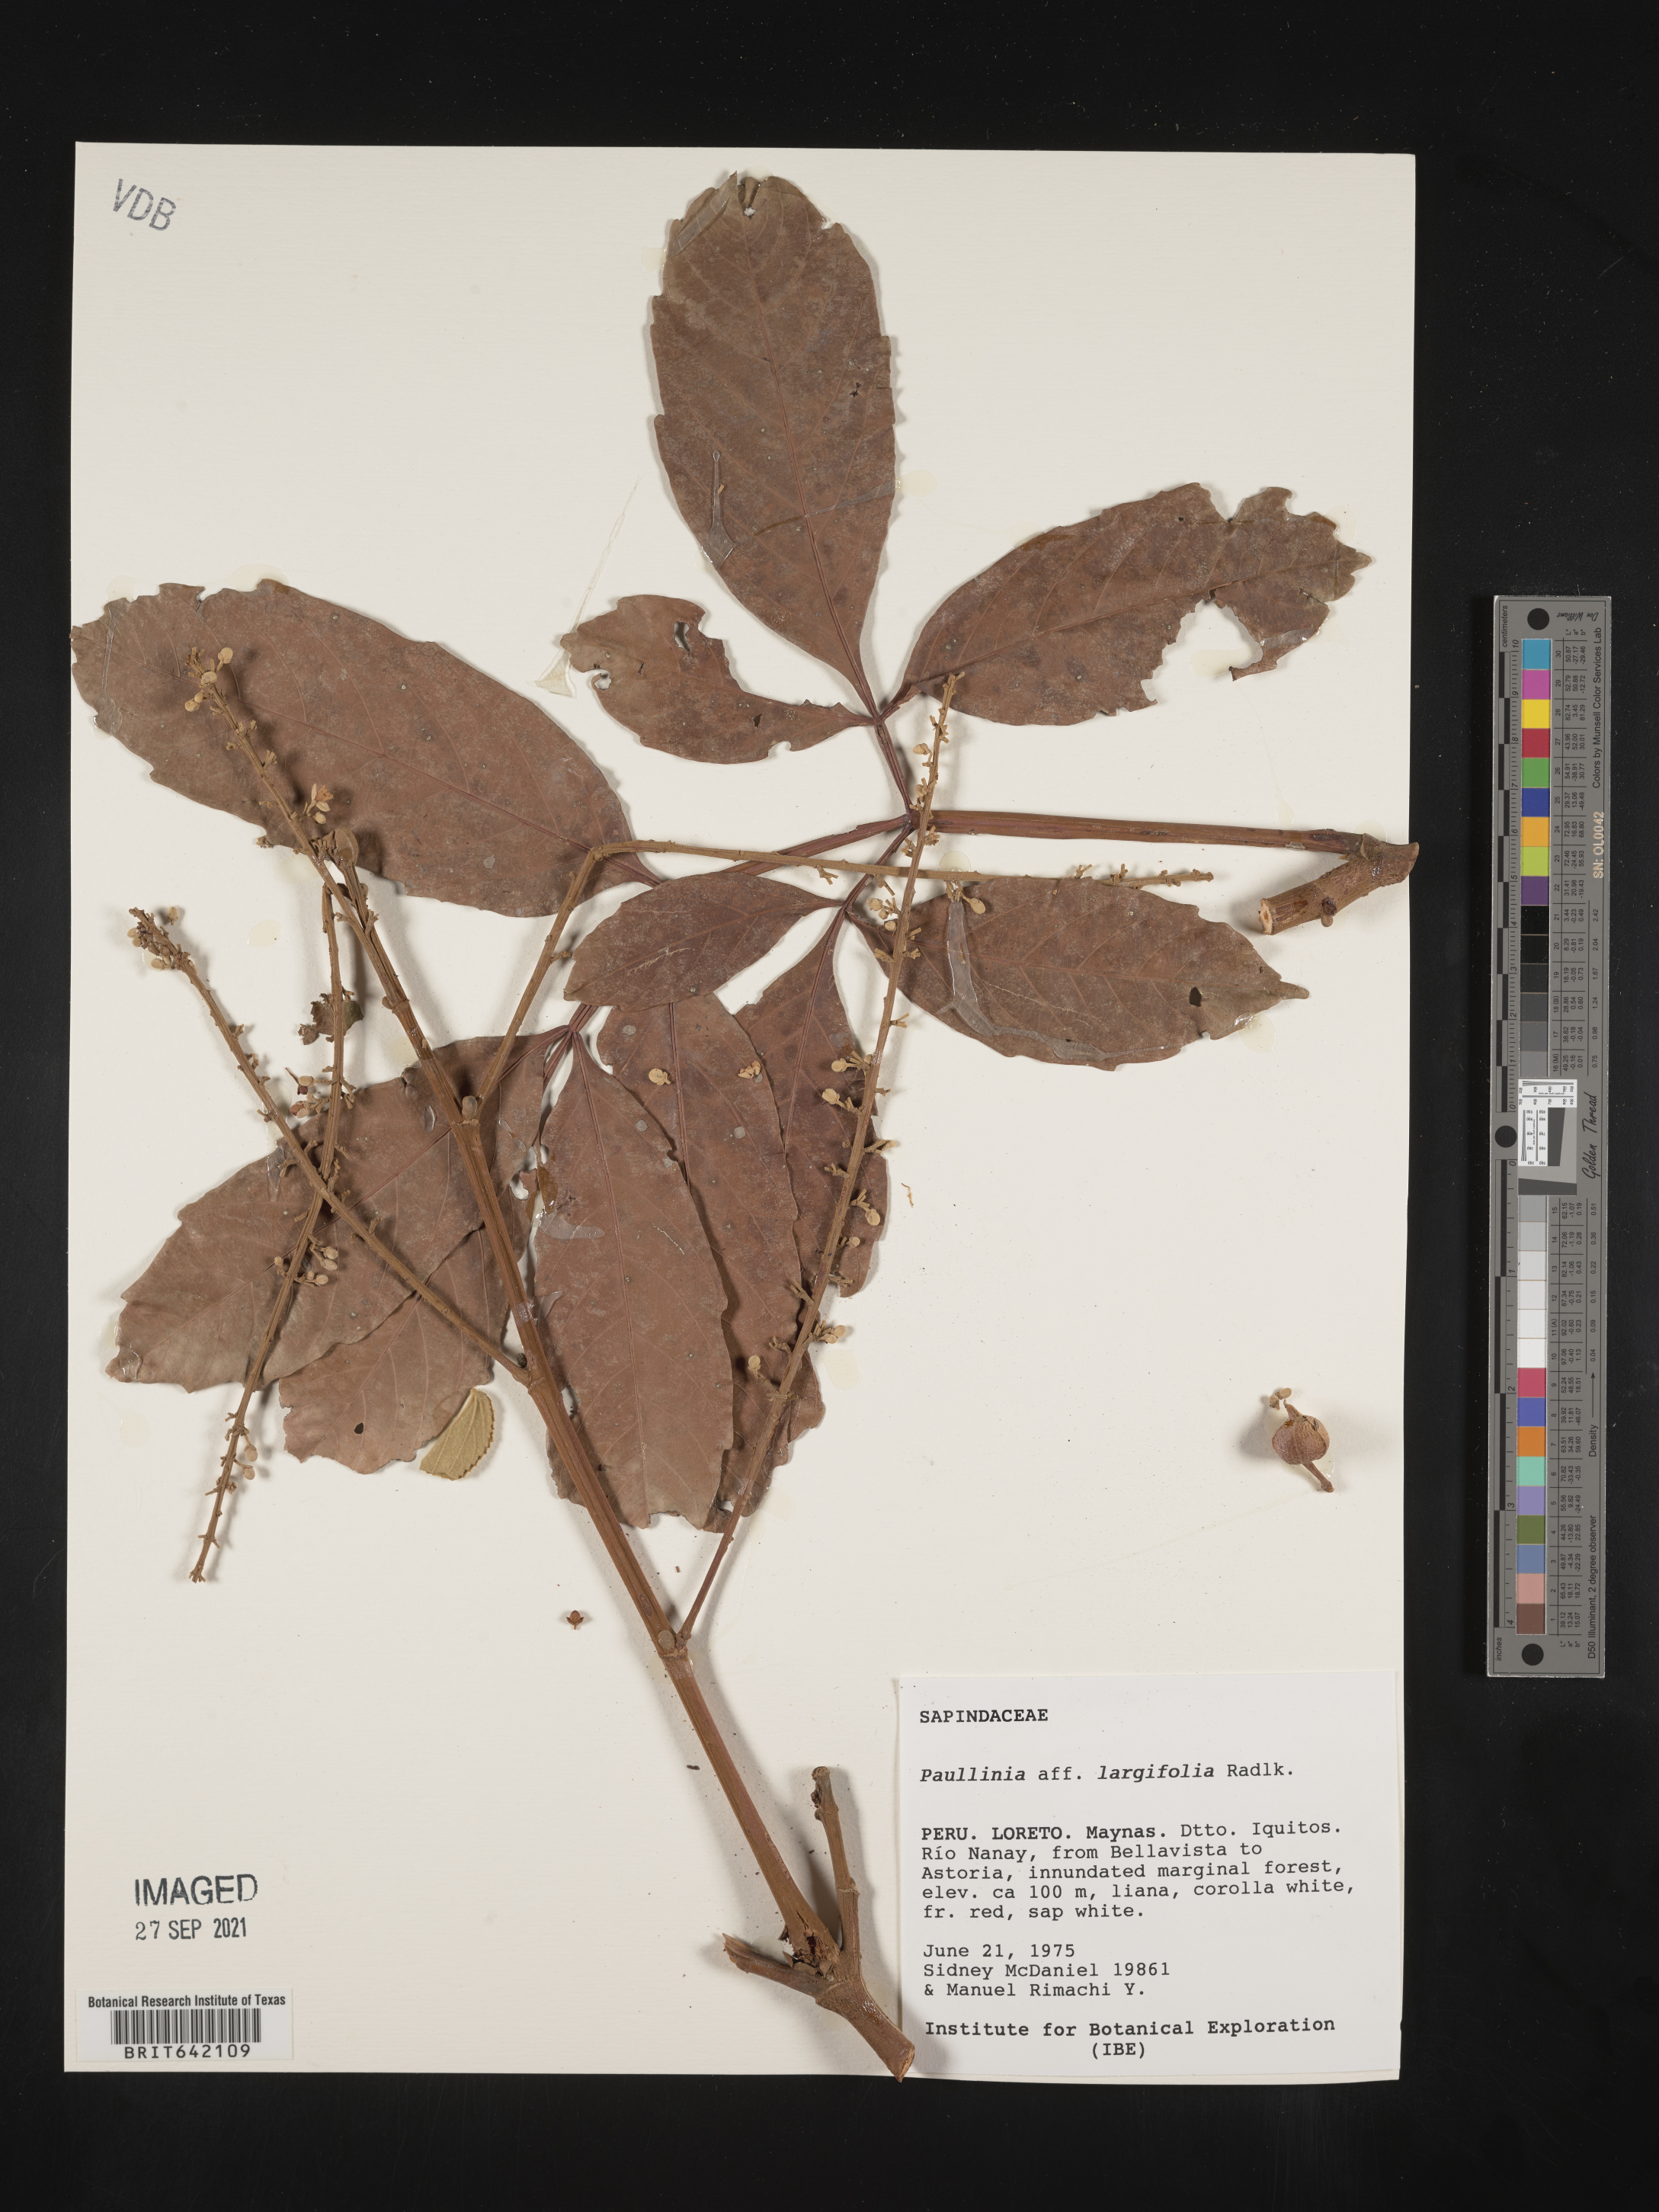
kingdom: Plantae
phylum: Tracheophyta
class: Magnoliopsida
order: Sapindales
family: Sapindaceae
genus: Paullinia
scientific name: Paullinia
